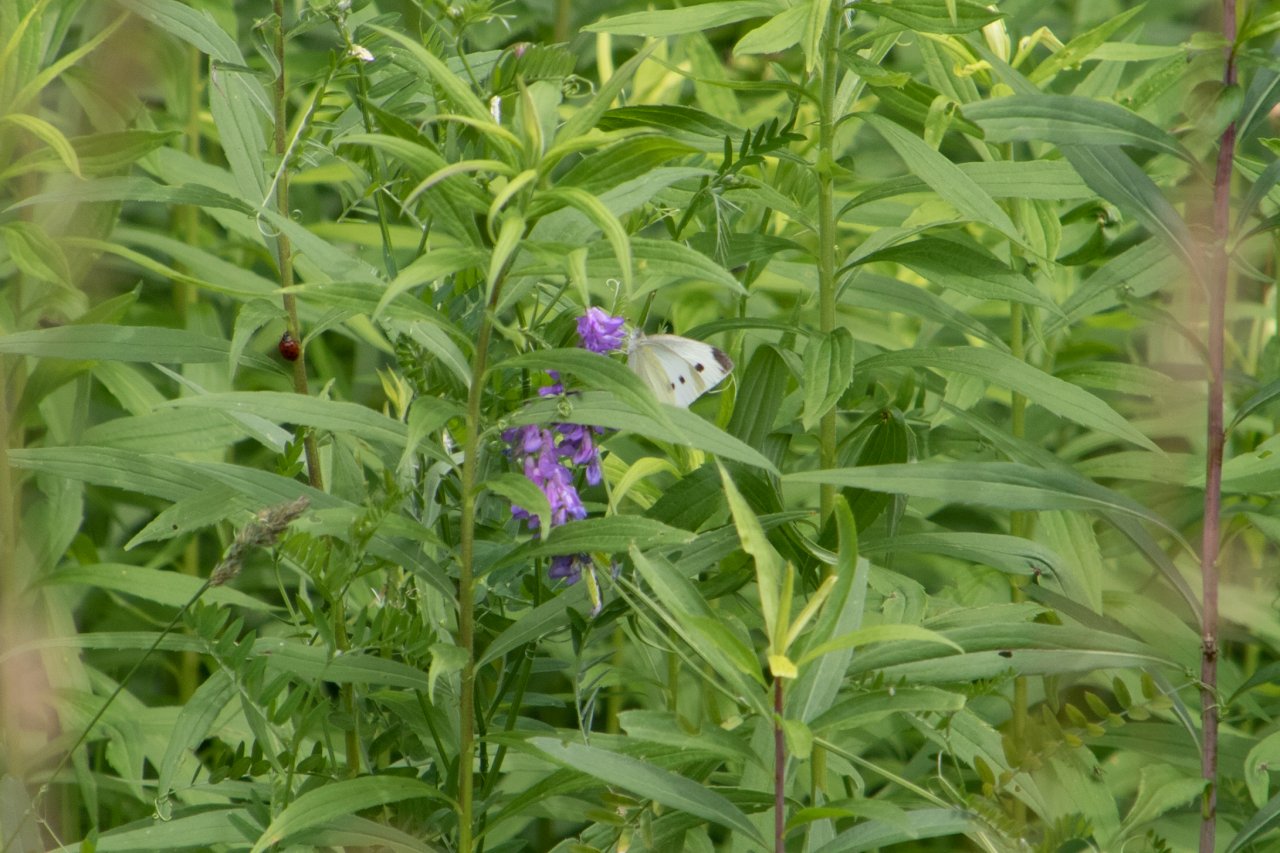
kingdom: Animalia
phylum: Arthropoda
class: Insecta
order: Lepidoptera
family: Pieridae
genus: Pieris
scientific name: Pieris rapae
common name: Cabbage White
